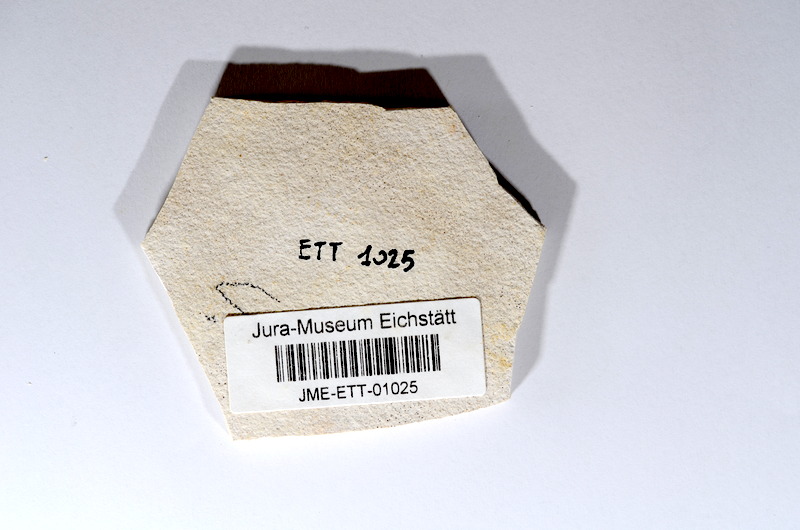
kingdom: Animalia
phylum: Chordata
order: Salmoniformes
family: Orthogonikleithridae
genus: Orthogonikleithrus
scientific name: Orthogonikleithrus hoelli
